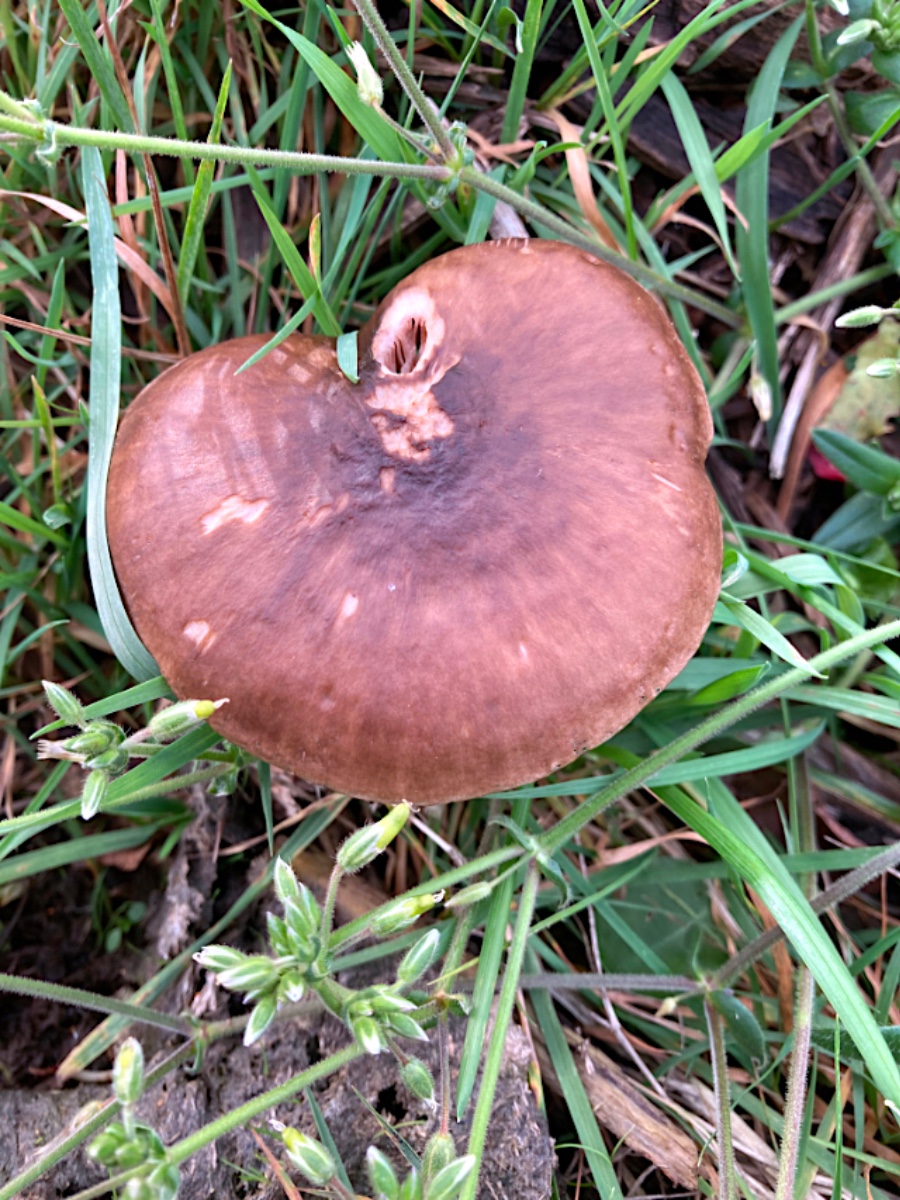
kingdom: Fungi
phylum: Basidiomycota
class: Agaricomycetes
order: Agaricales
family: Pluteaceae
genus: Pluteus
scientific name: Pluteus cervinus
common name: sodfarvet skærmhat
